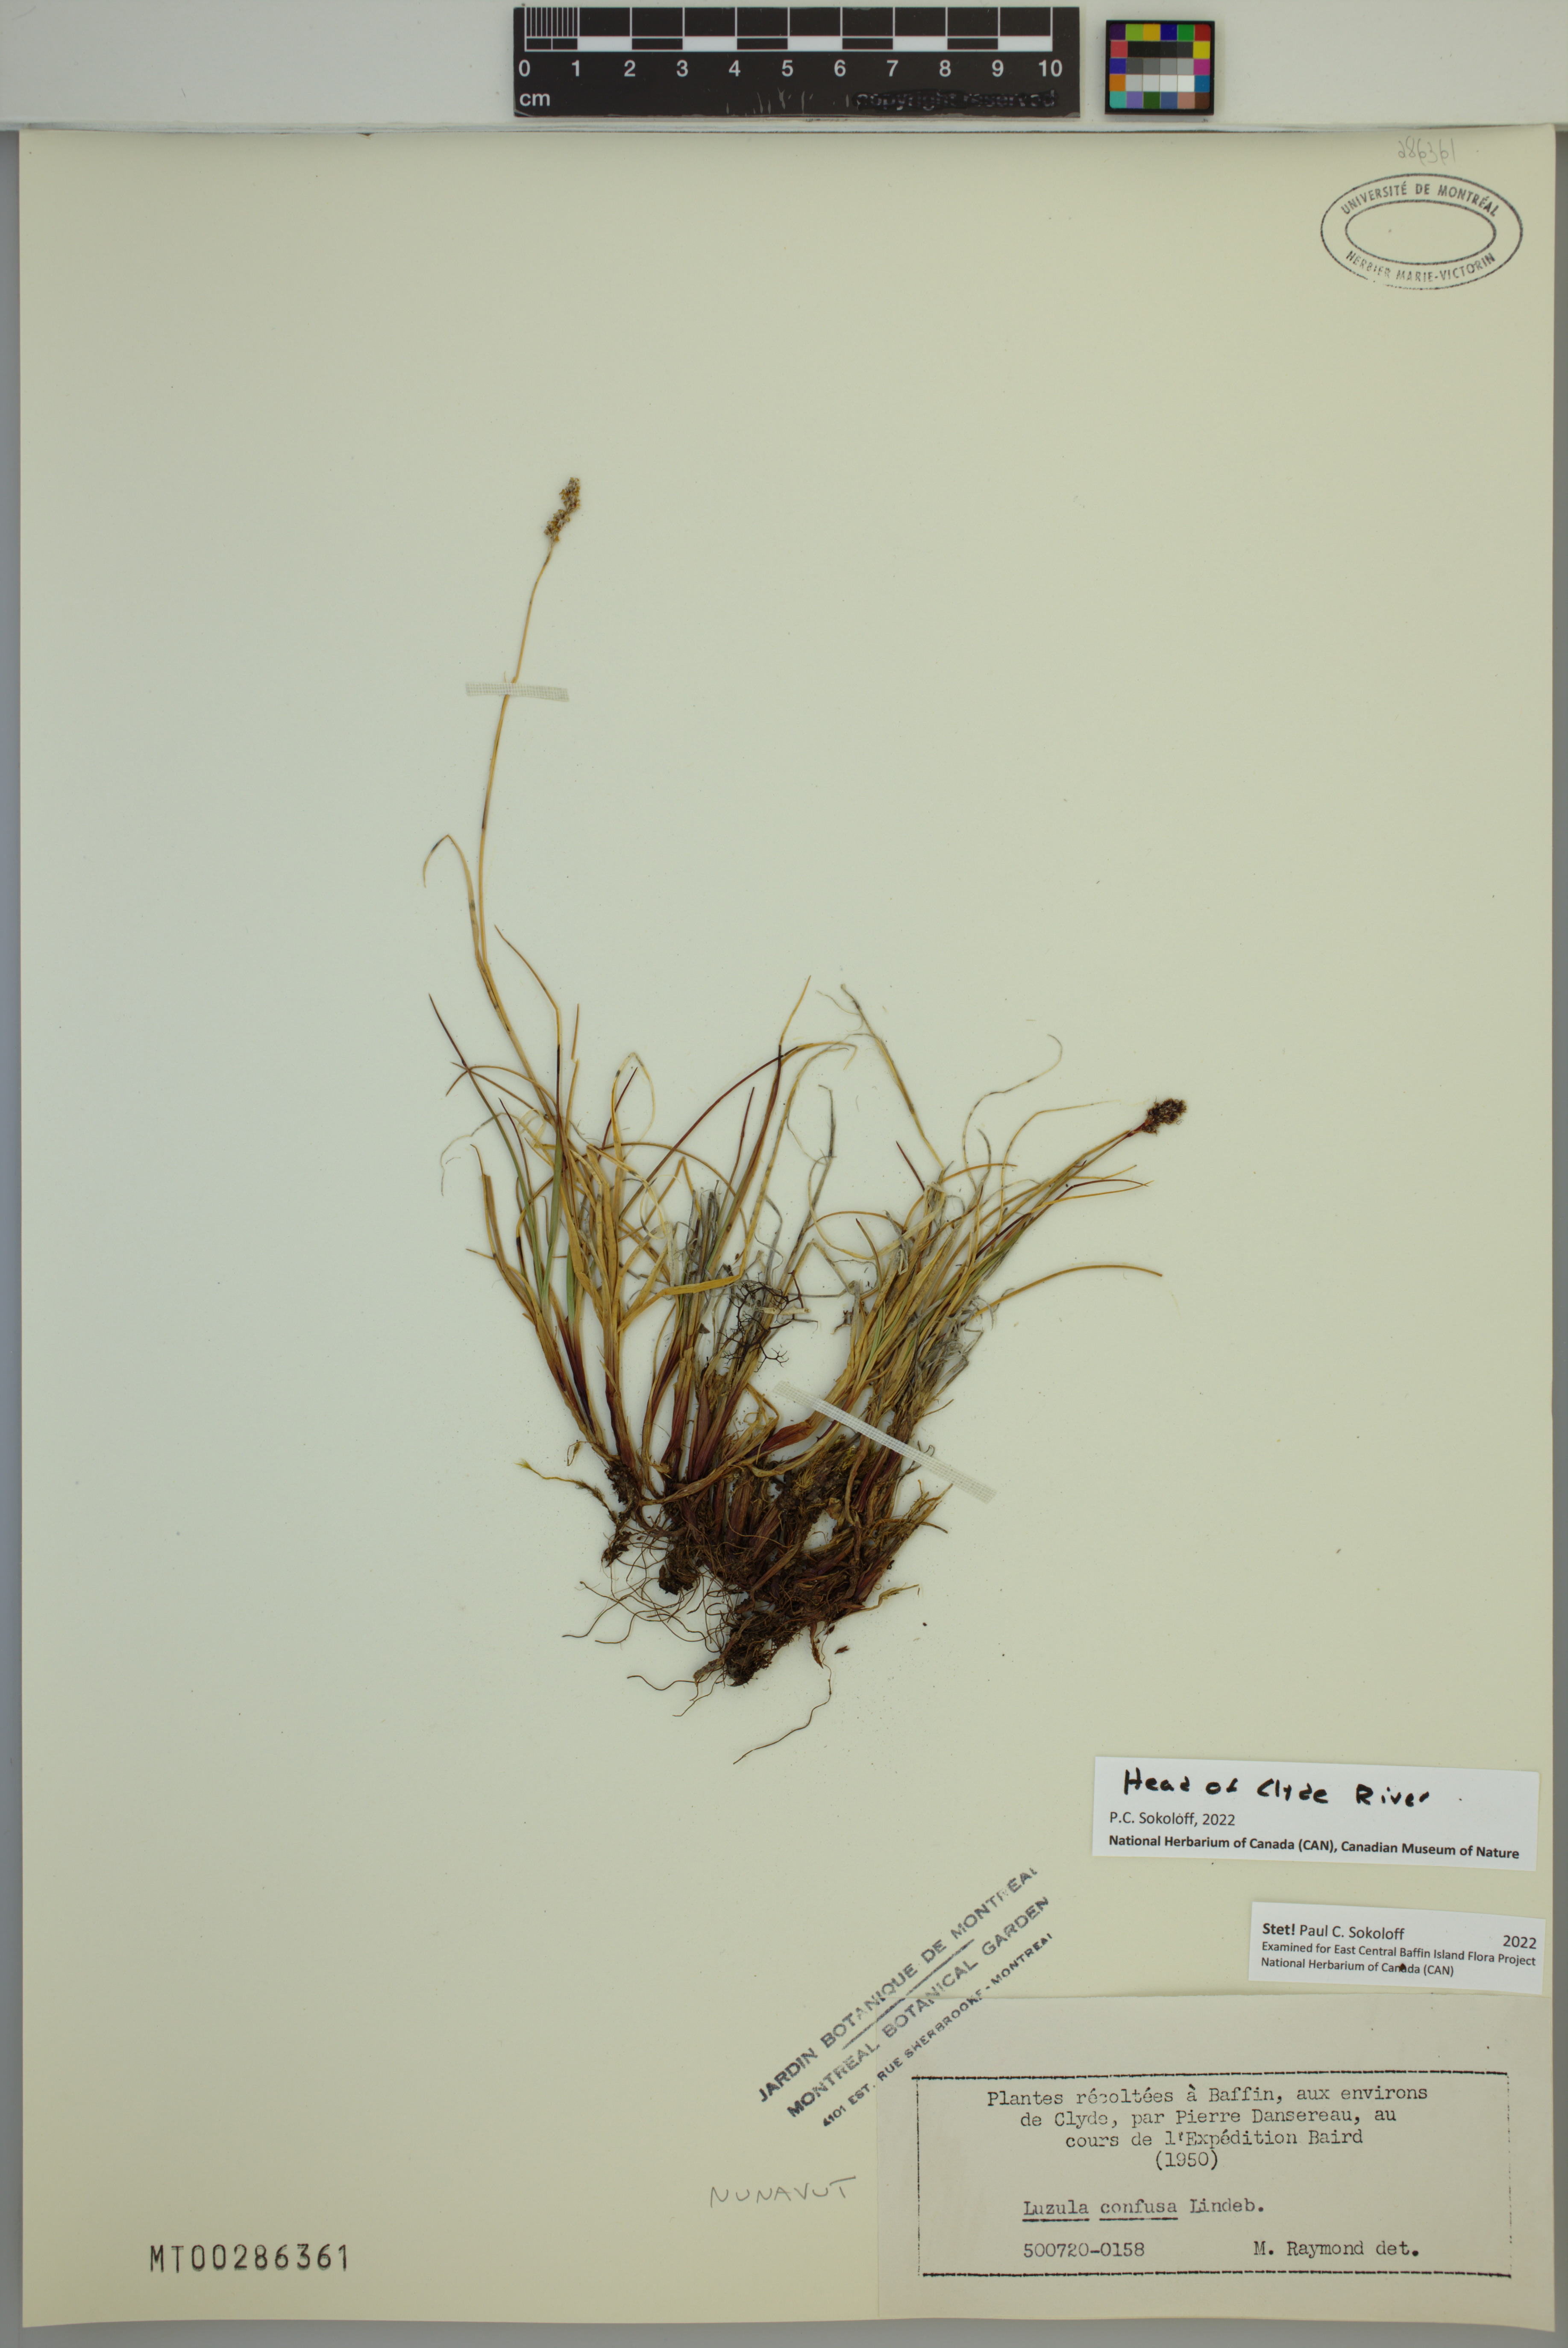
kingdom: Plantae
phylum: Tracheophyta
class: Liliopsida
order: Poales
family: Juncaceae
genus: Luzula
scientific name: Luzula confusa
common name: Northern wood rush
